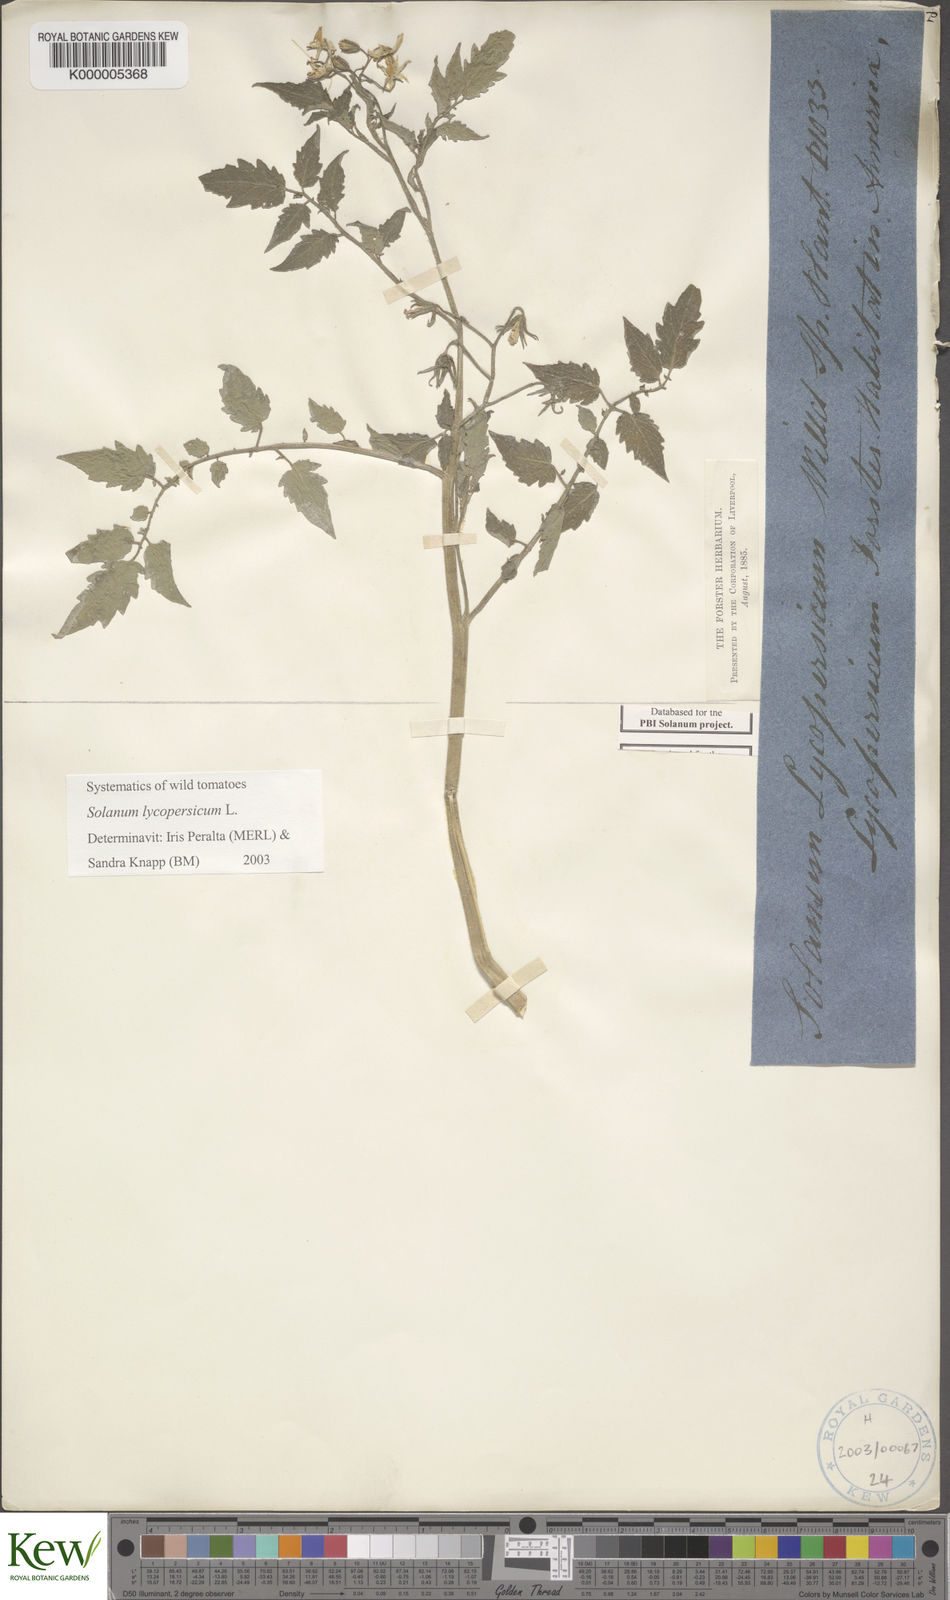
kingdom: Plantae
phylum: Tracheophyta
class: Magnoliopsida
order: Solanales
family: Solanaceae
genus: Solanum
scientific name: Solanum lycopersicum
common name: Garden tomato
